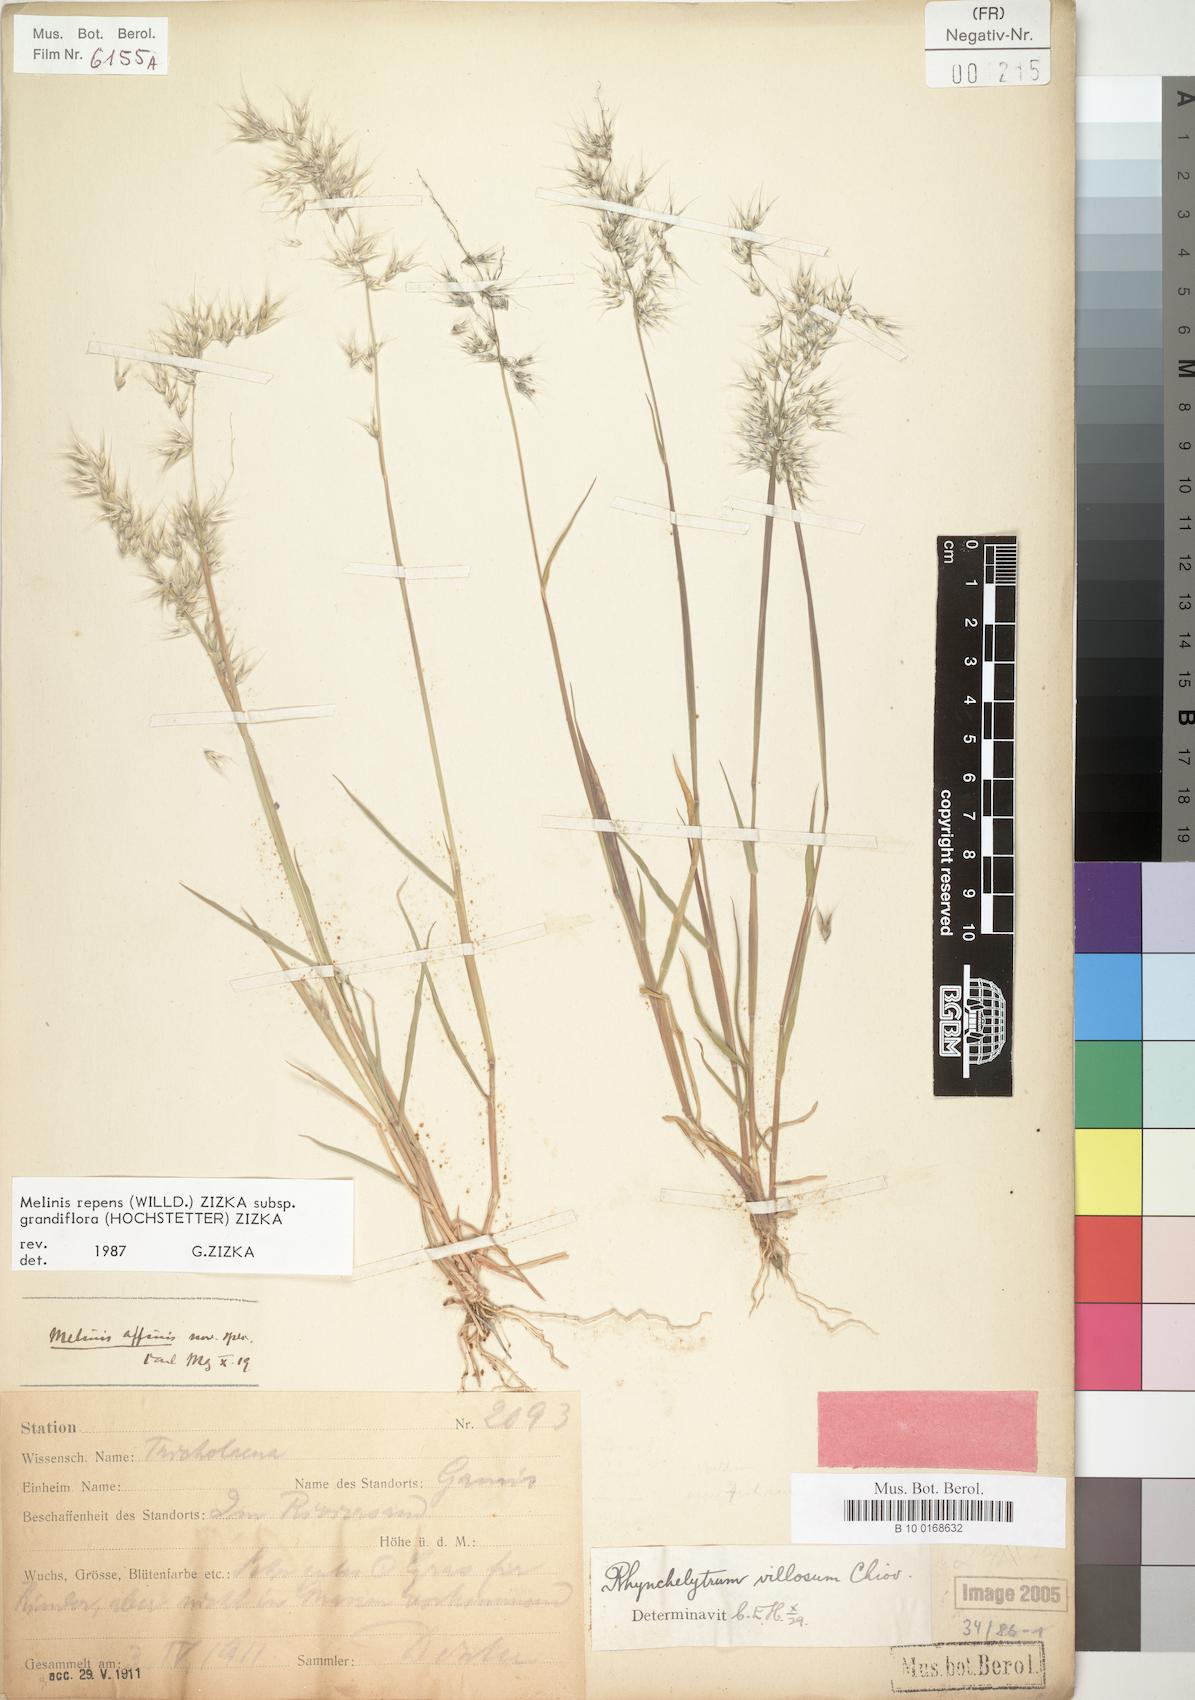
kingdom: Plantae
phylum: Tracheophyta
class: Liliopsida
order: Poales
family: Poaceae
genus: Melinis
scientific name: Melinis repens
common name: Rose natal grass
